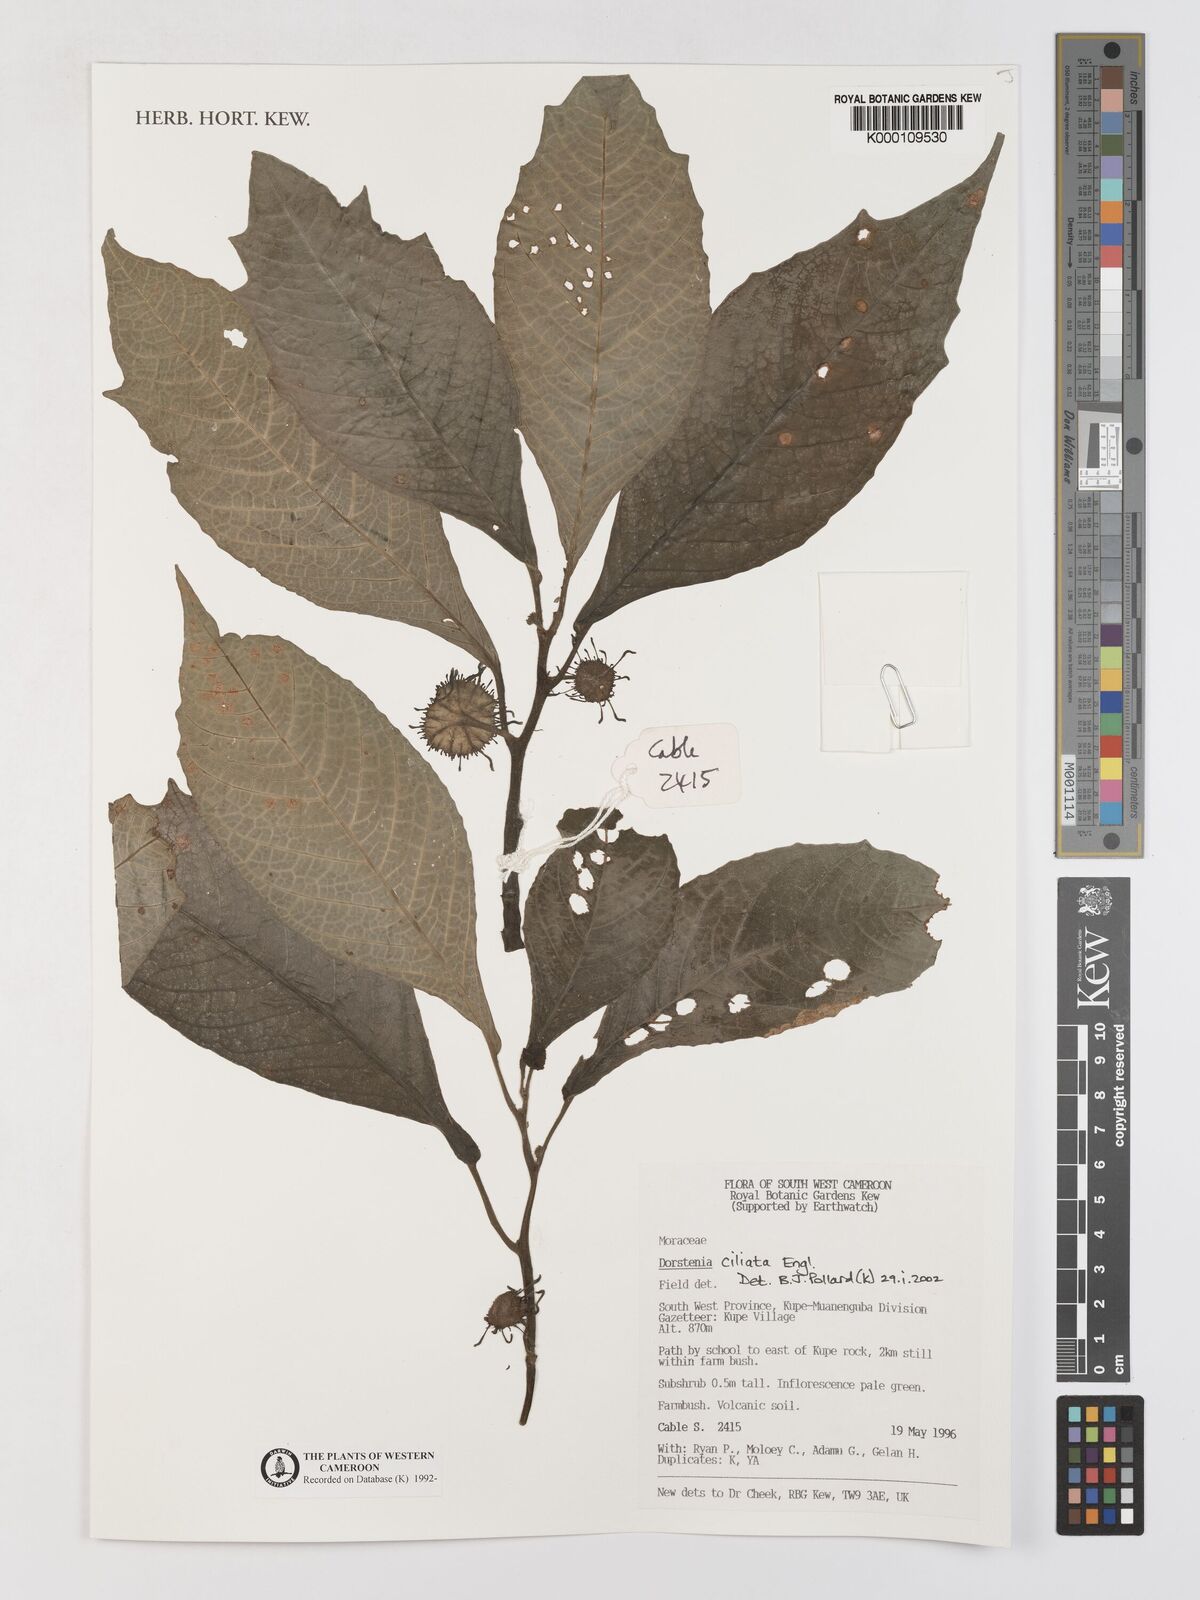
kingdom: Plantae
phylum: Tracheophyta
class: Magnoliopsida
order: Rosales
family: Moraceae
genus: Dorstenia
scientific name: Dorstenia ciliata
